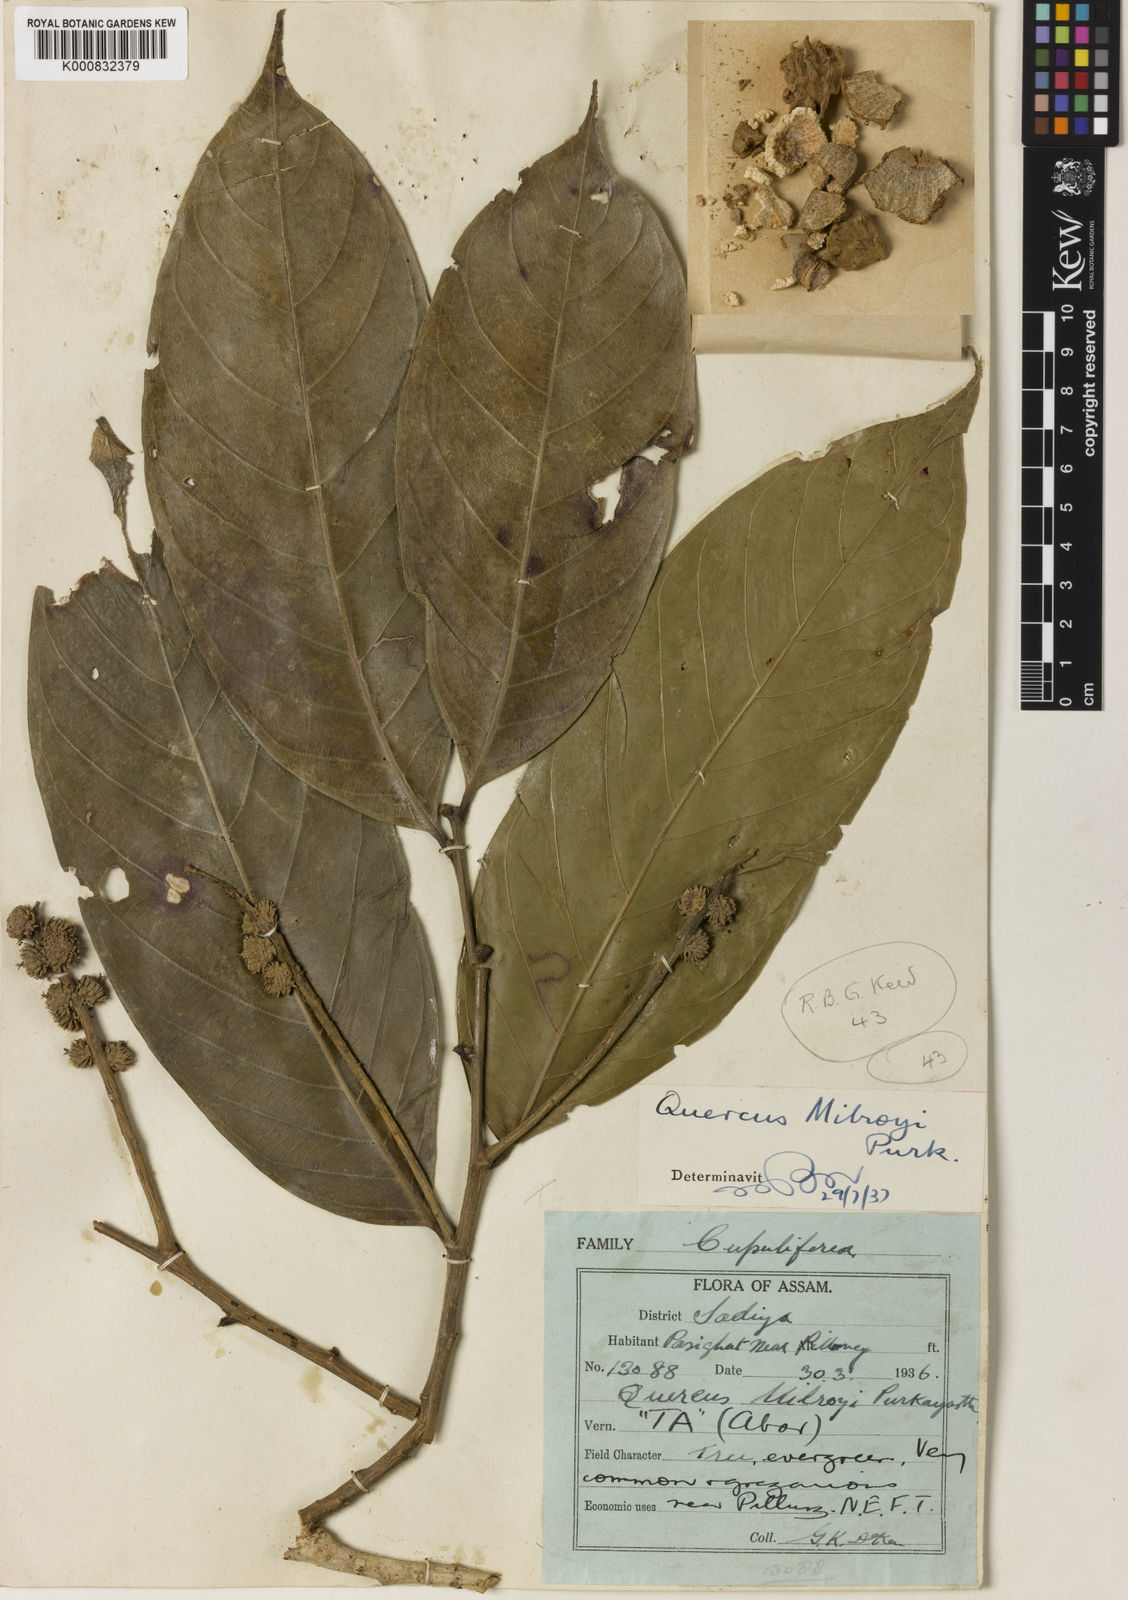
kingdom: Plantae
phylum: Tracheophyta
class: Magnoliopsida
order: Fagales
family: Fagaceae
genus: Lithocarpus
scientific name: Lithocarpus milroyi
